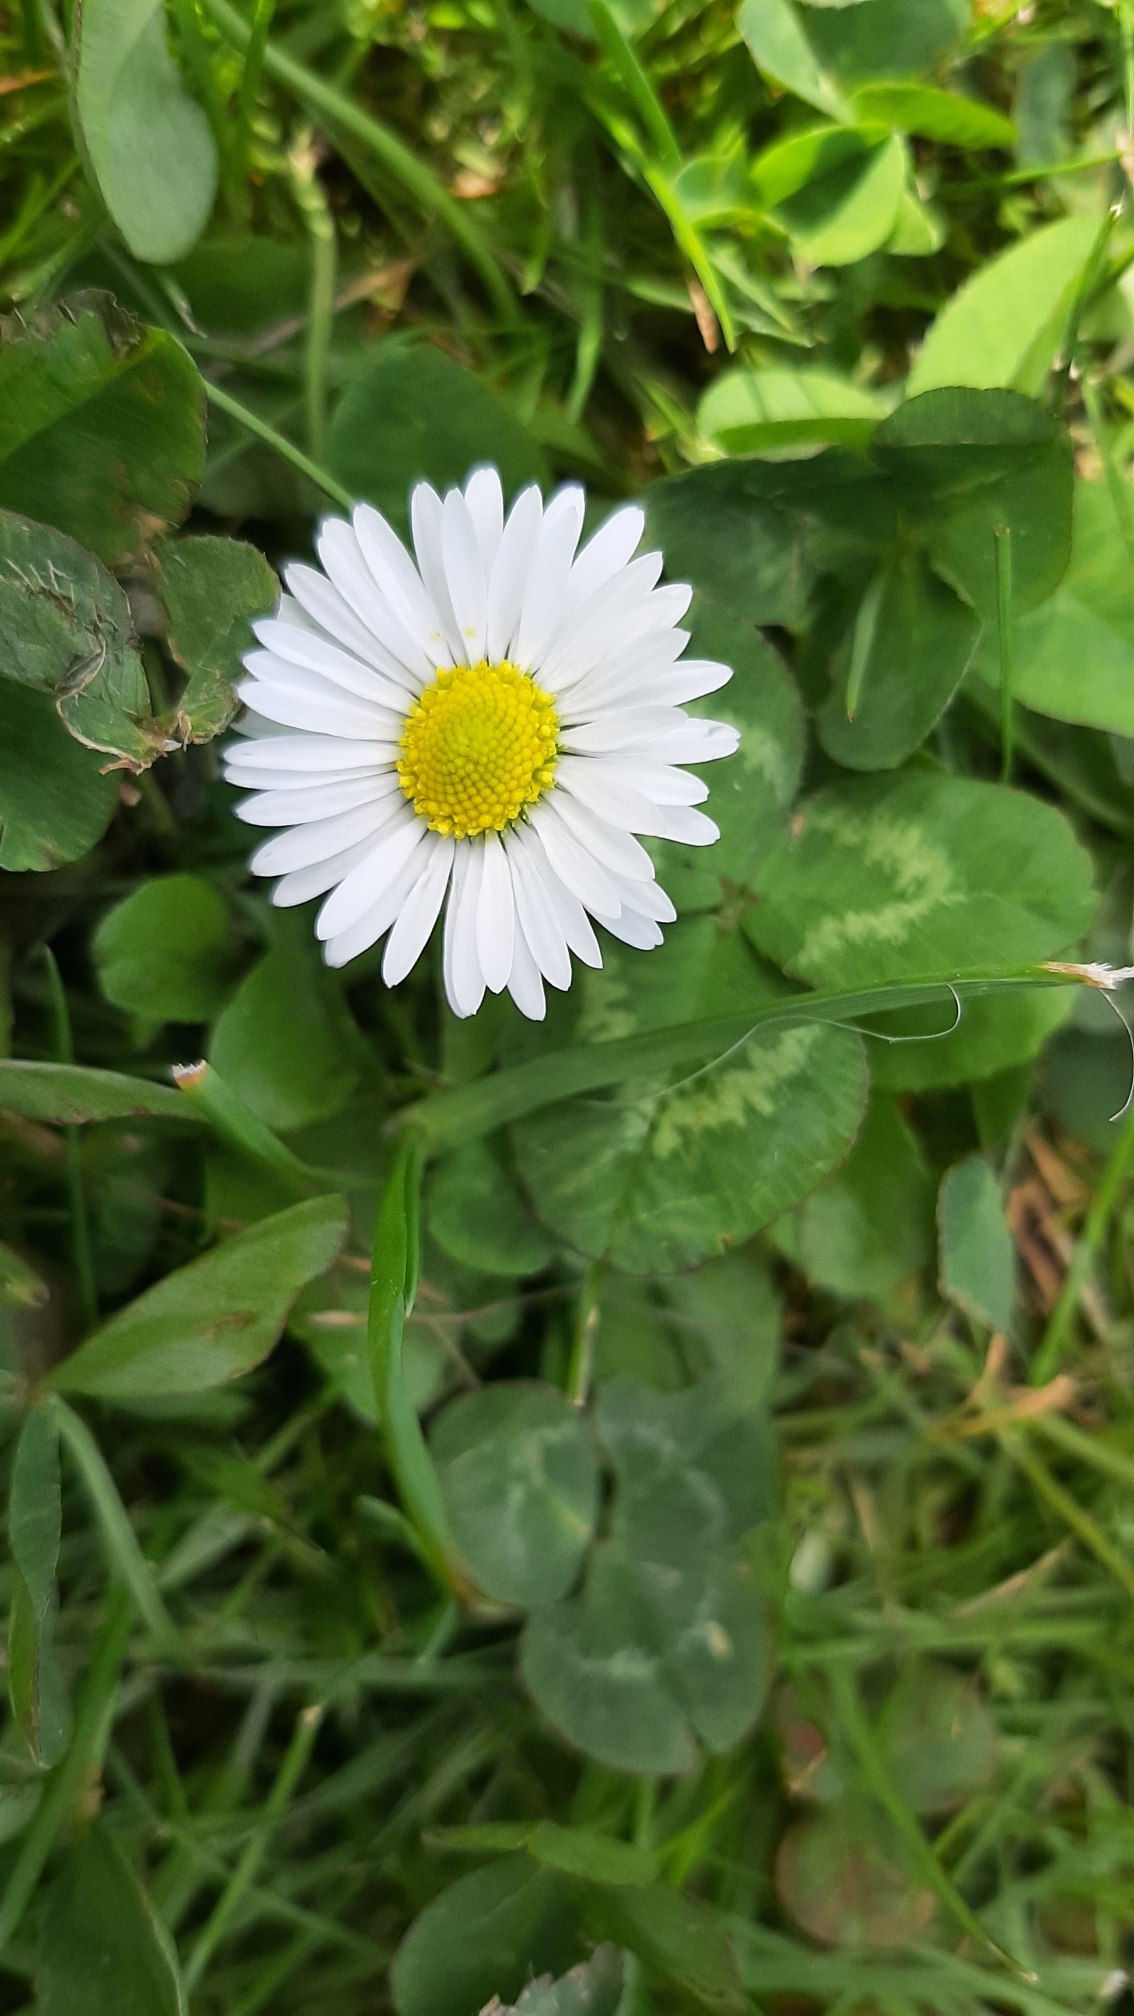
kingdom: Plantae
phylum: Tracheophyta
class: Magnoliopsida
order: Asterales
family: Asteraceae
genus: Bellis
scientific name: Bellis perennis
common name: Tusindfryd
